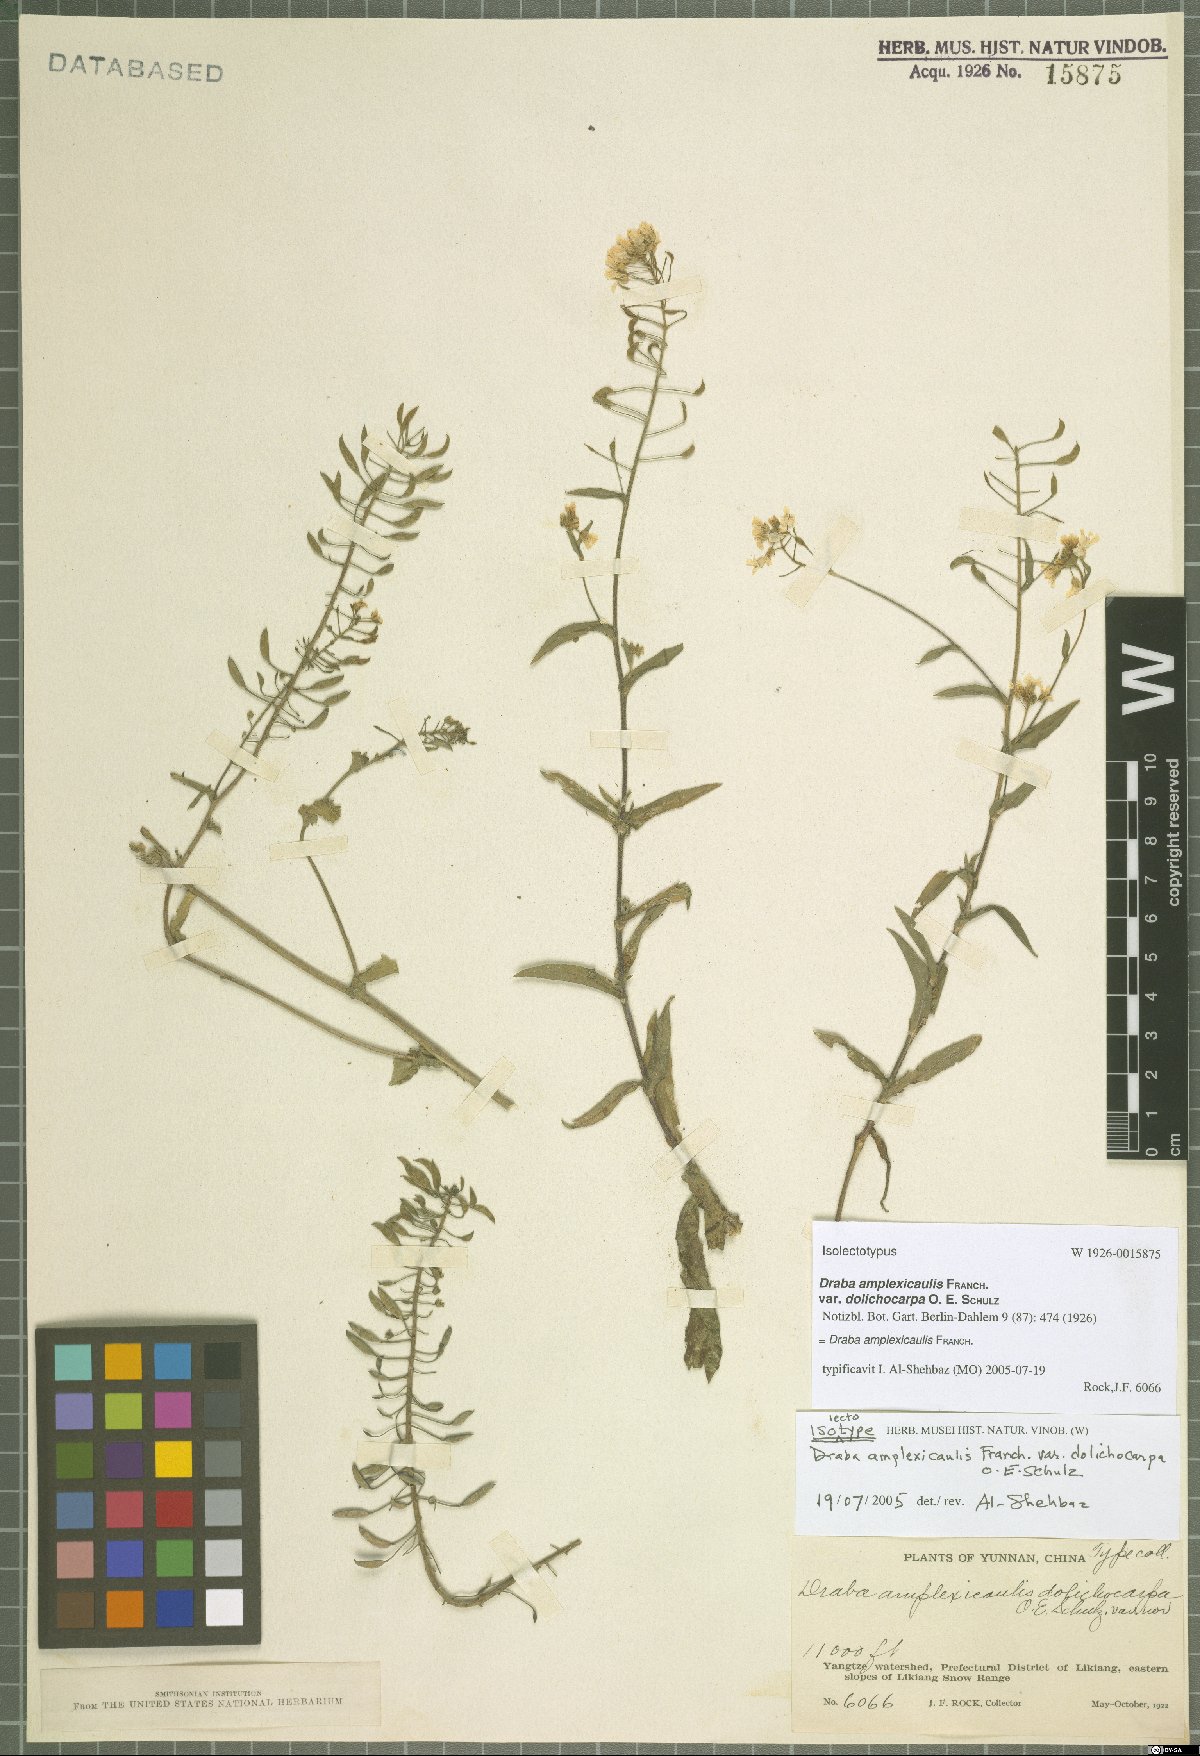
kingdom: Plantae
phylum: Tracheophyta
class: Magnoliopsida
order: Brassicales
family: Brassicaceae
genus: Draba
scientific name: Draba amplexicaulis
